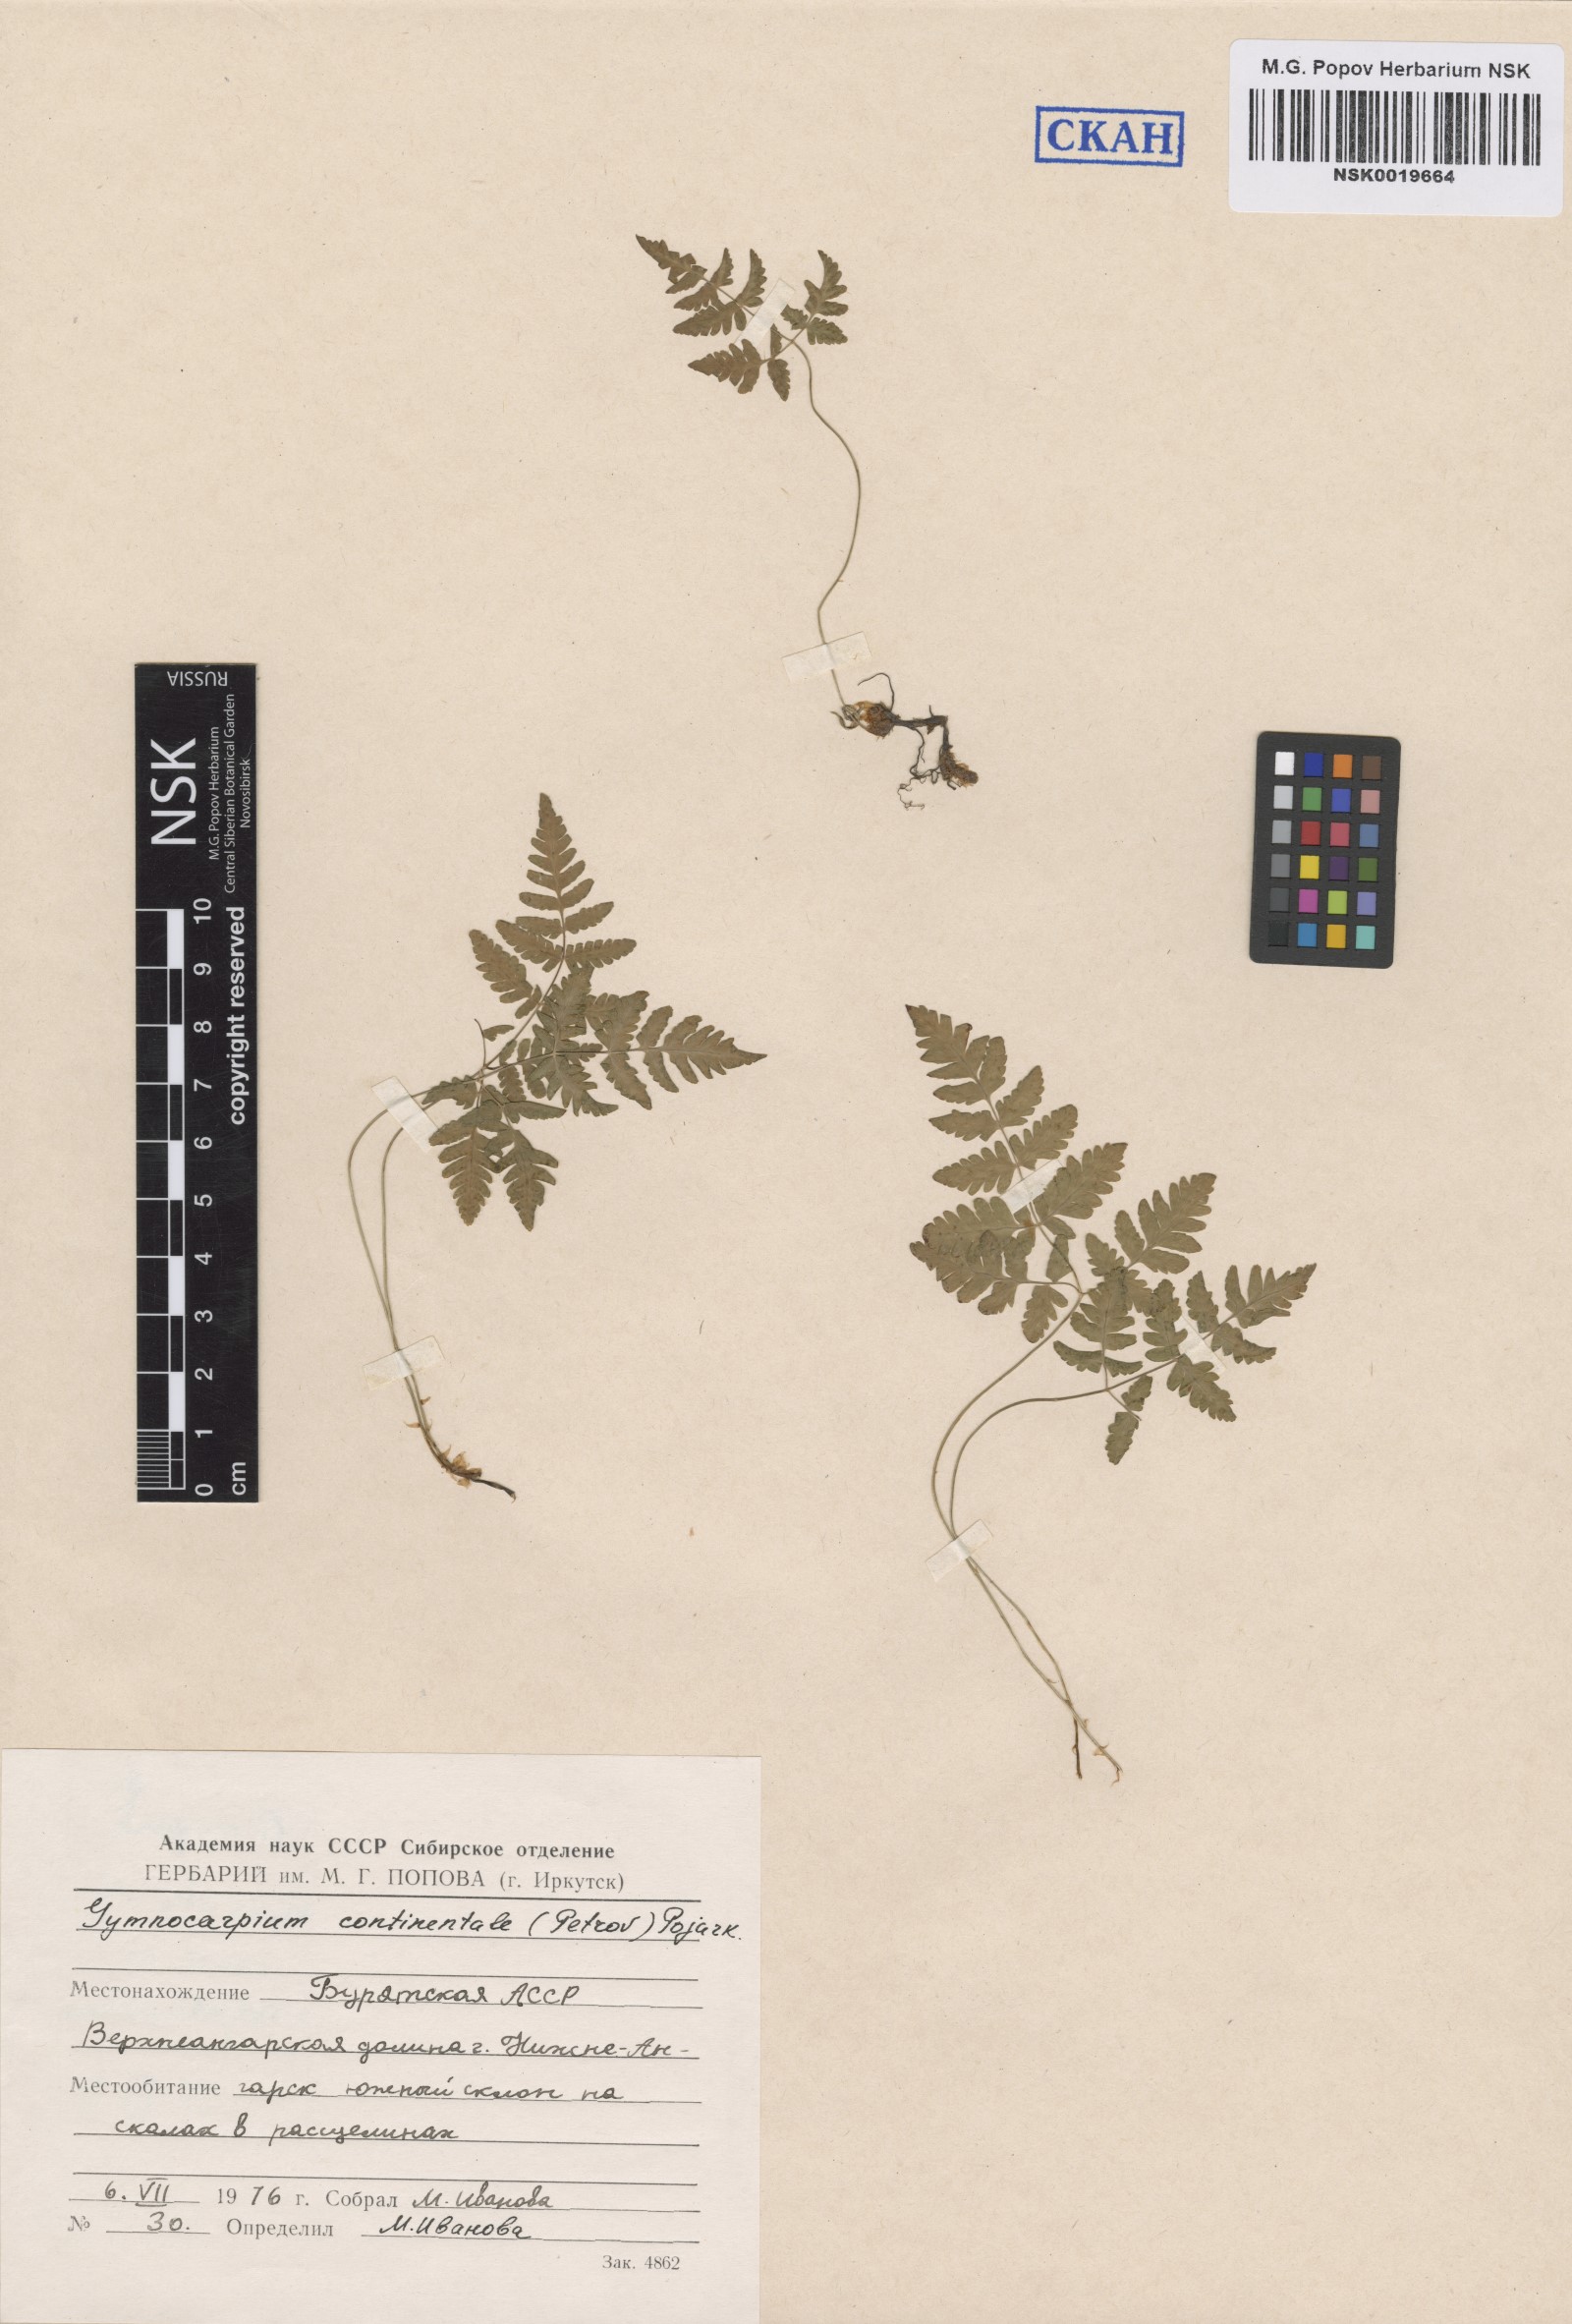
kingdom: Plantae
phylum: Tracheophyta
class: Polypodiopsida
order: Polypodiales
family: Cystopteridaceae
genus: Gymnocarpium
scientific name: Gymnocarpium continentale
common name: Asian oak fern
